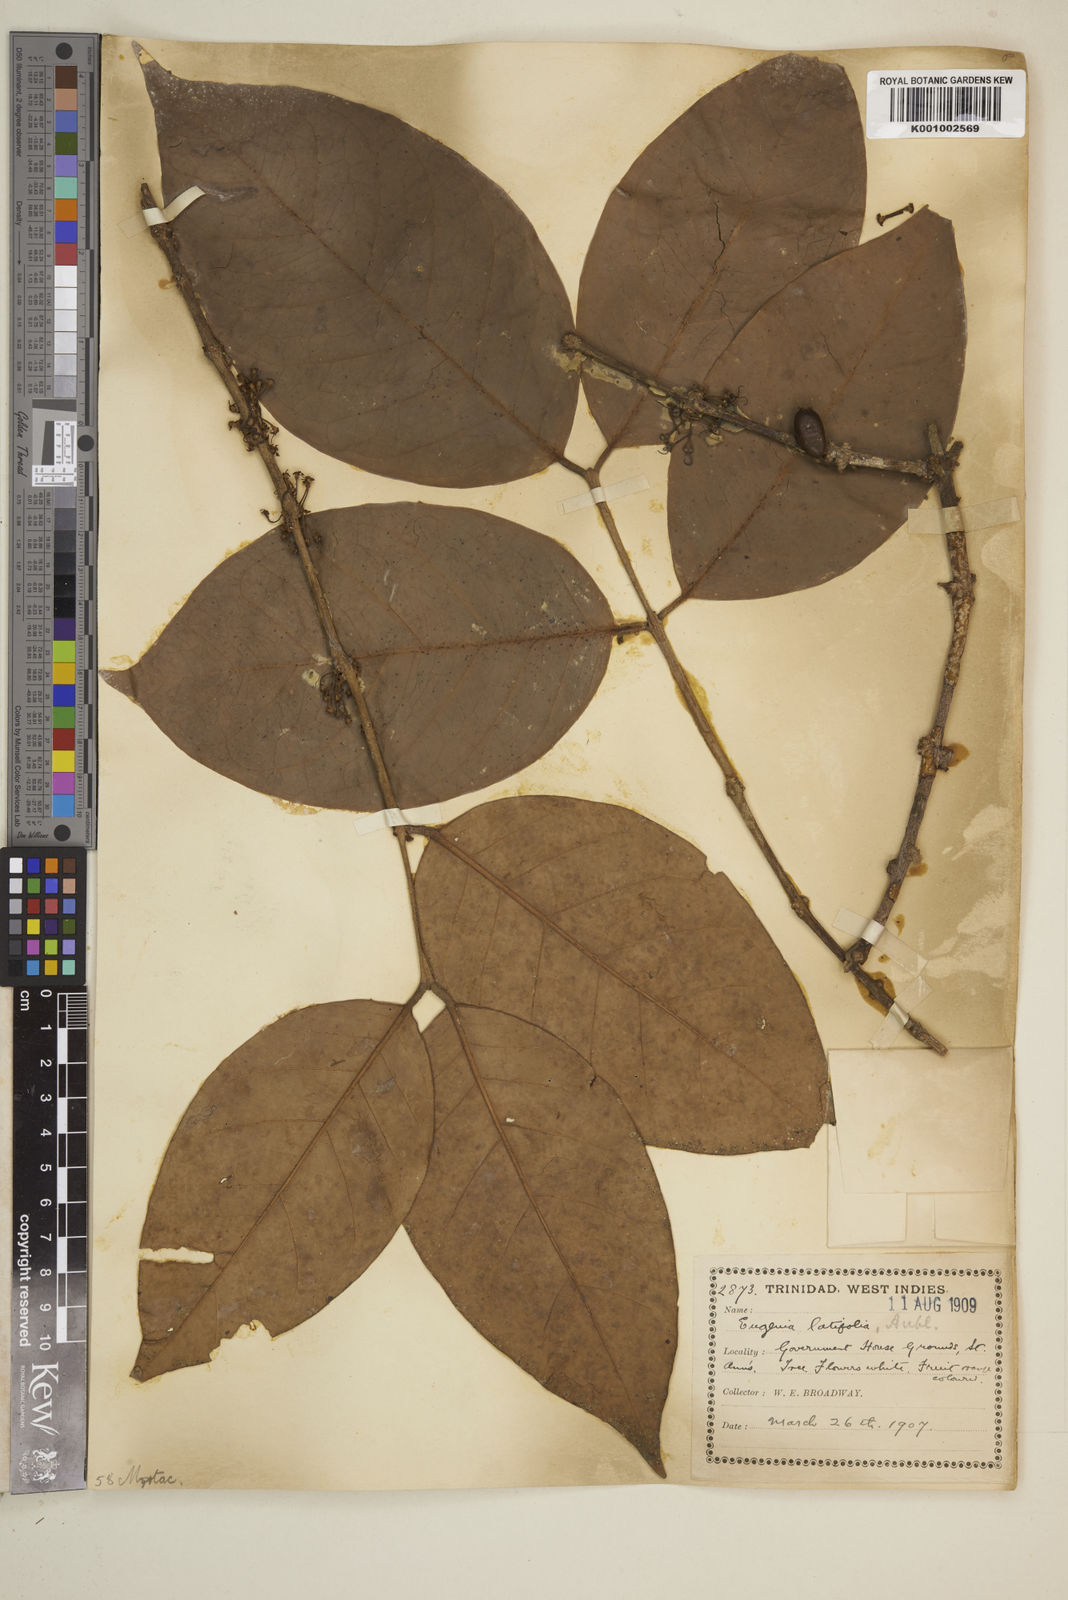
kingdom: Plantae
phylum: Tracheophyta
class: Magnoliopsida
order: Myrtales
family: Myrtaceae
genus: Eugenia
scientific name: Eugenia latifolia
